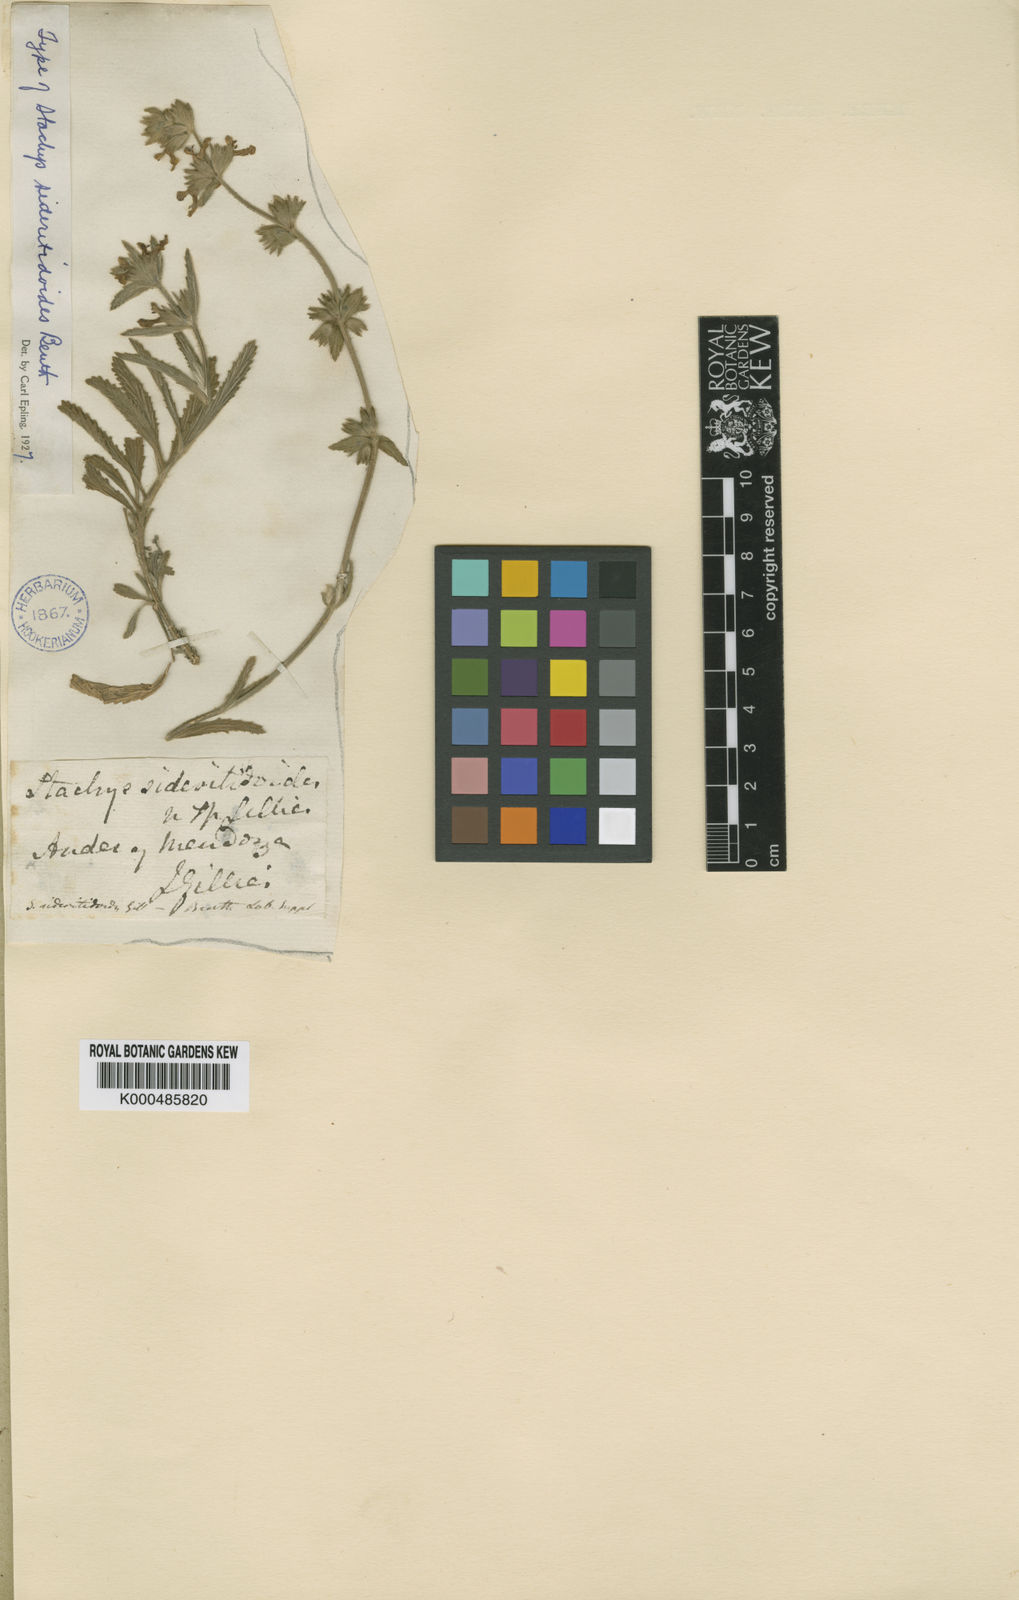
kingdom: Plantae
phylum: Tracheophyta
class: Magnoliopsida
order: Lamiales
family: Lamiaceae
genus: Stachys
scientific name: Stachys sericea
